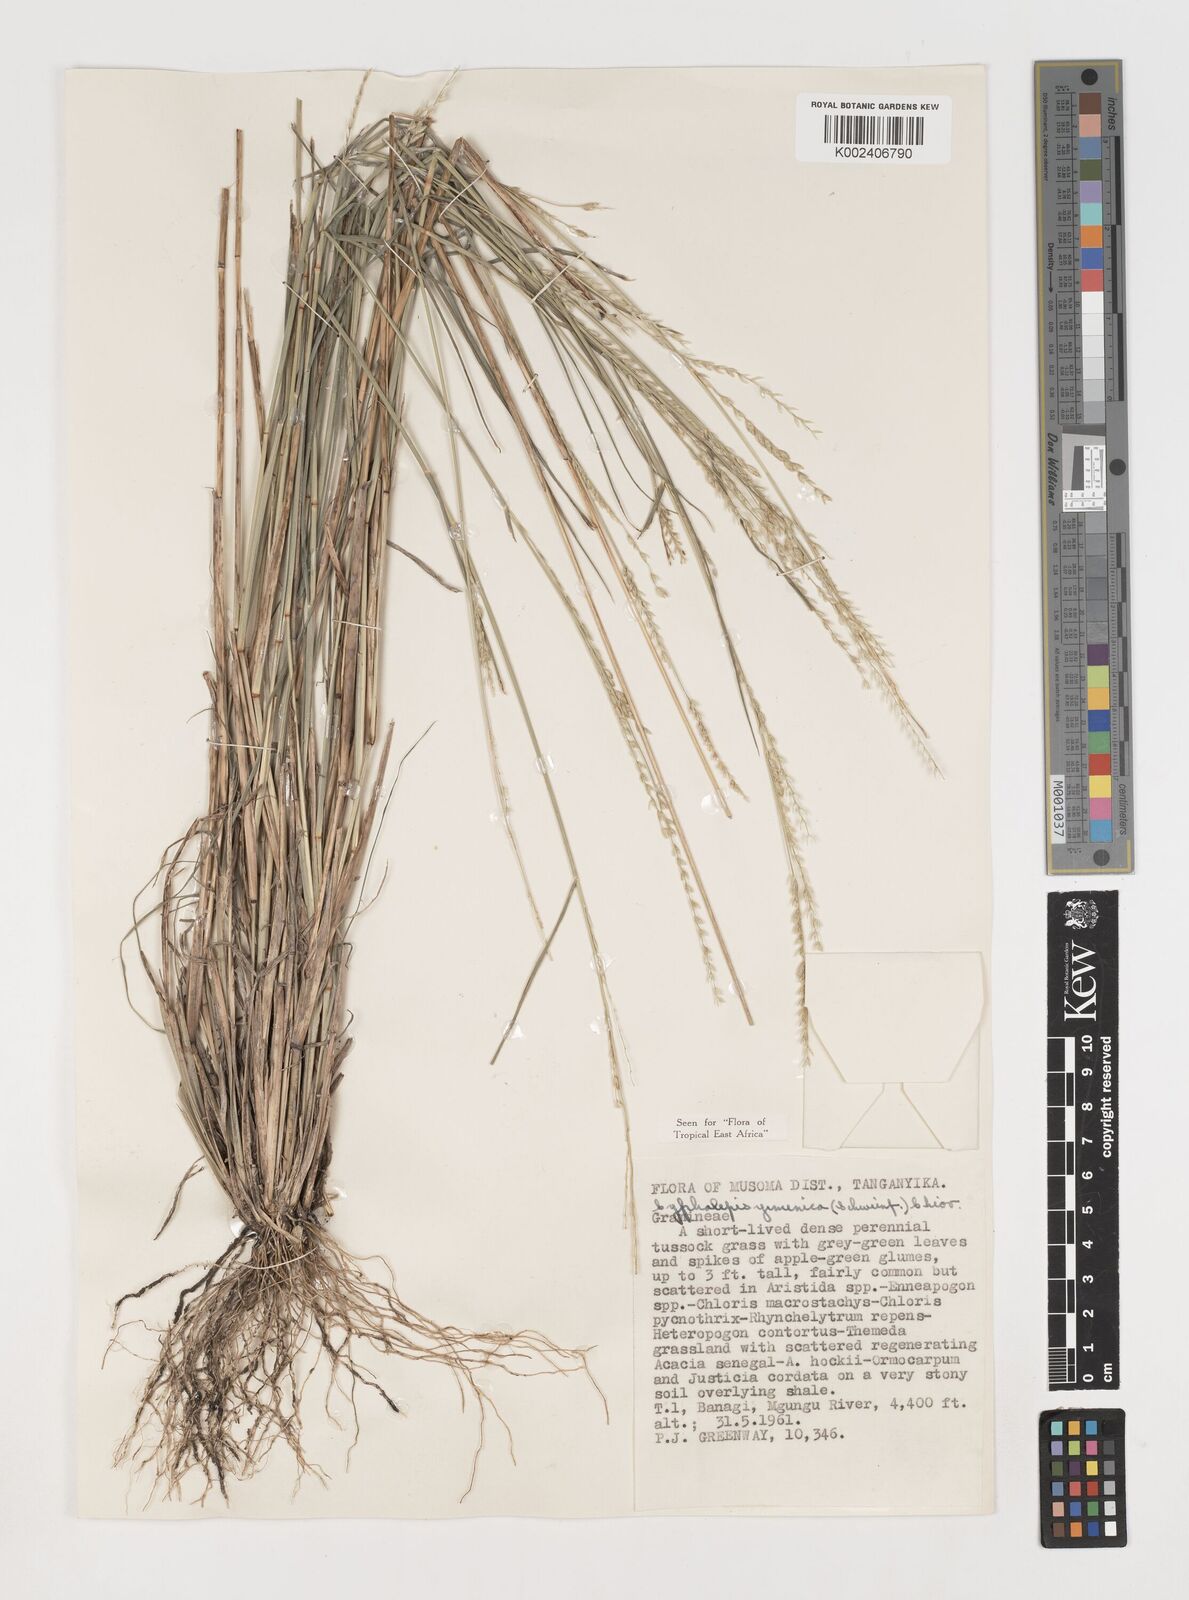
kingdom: Plantae
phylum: Tracheophyta
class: Liliopsida
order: Poales
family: Poaceae
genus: Disakisperma
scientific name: Disakisperma yemenicum
